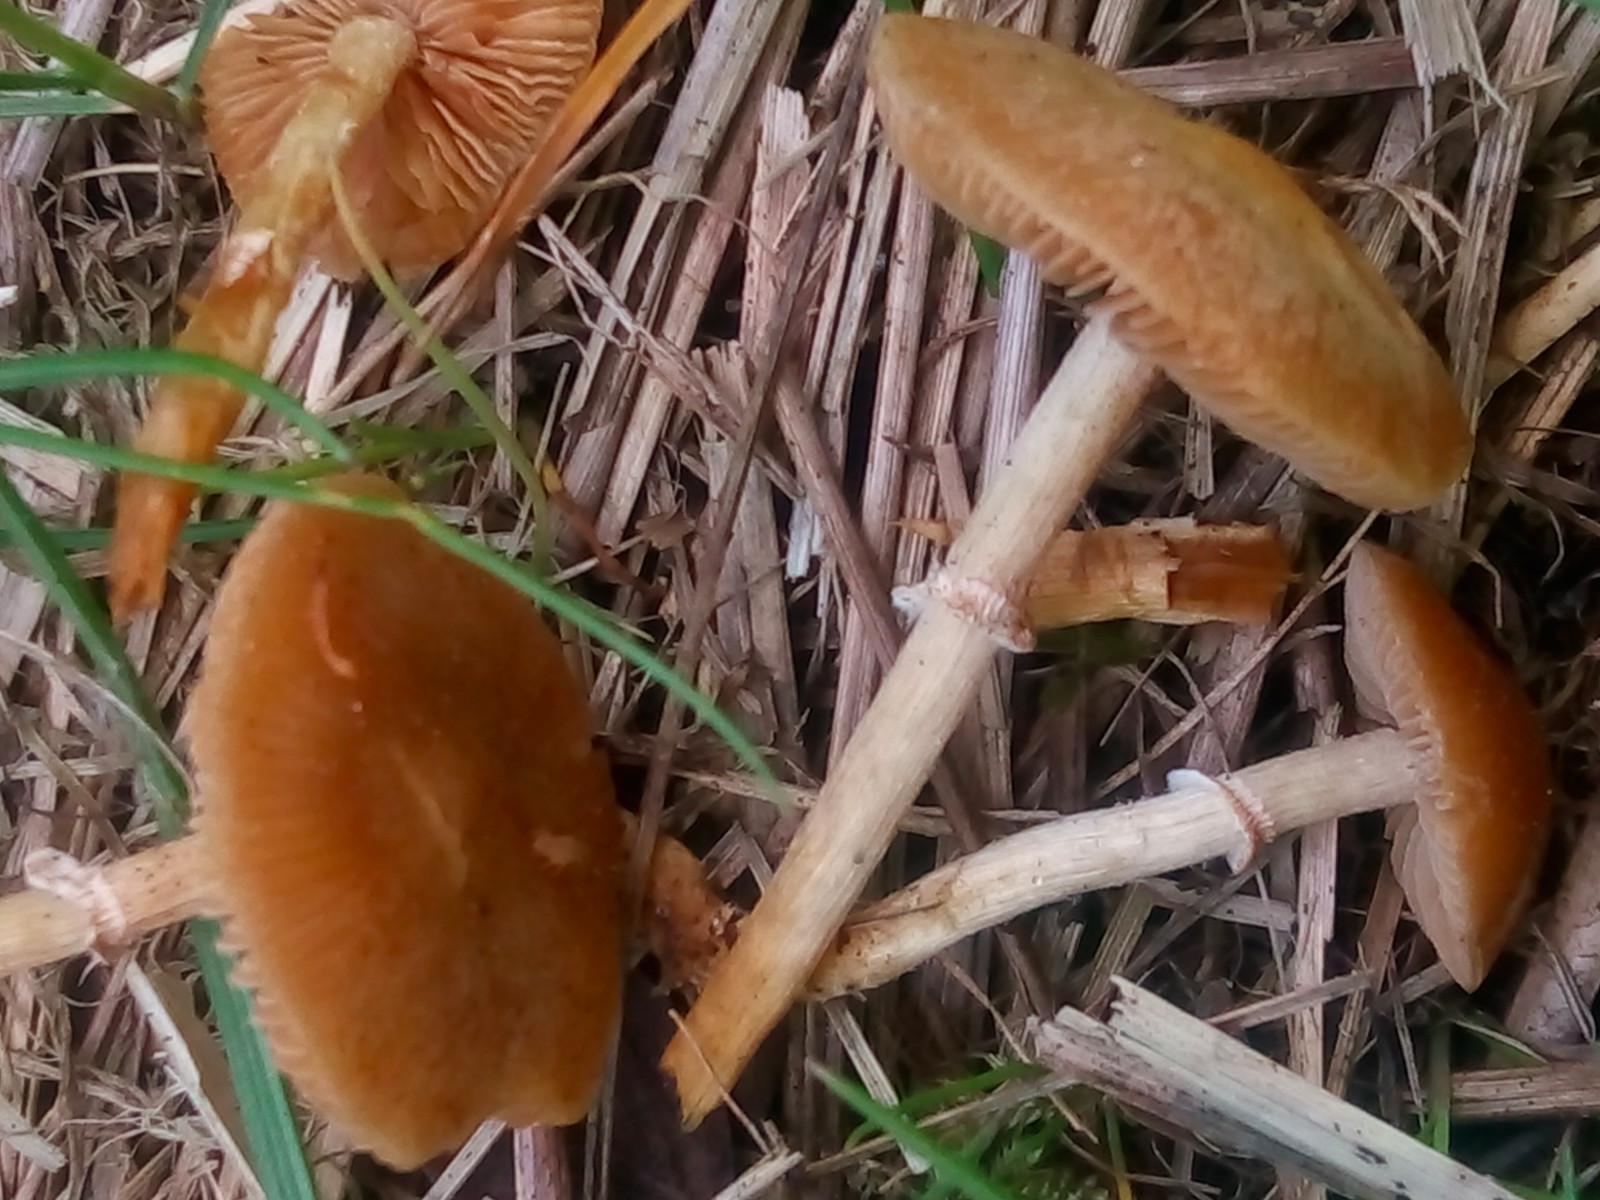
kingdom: Fungi
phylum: Basidiomycota
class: Agaricomycetes
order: Agaricales
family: Bolbitiaceae
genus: Conocybe
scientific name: Conocybe aporos
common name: tidlig dansehat
